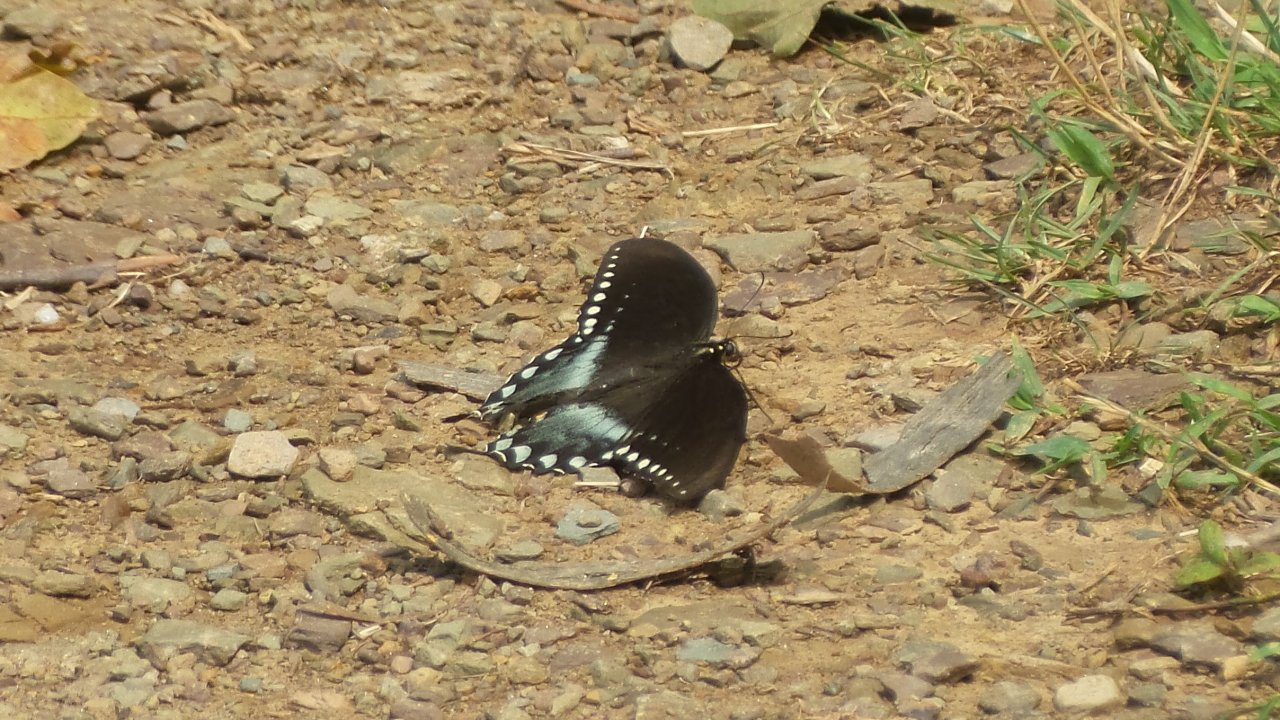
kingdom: Animalia
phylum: Arthropoda
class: Insecta
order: Lepidoptera
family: Papilionidae
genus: Pterourus
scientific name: Pterourus troilus
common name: Spicebush Swallowtail
